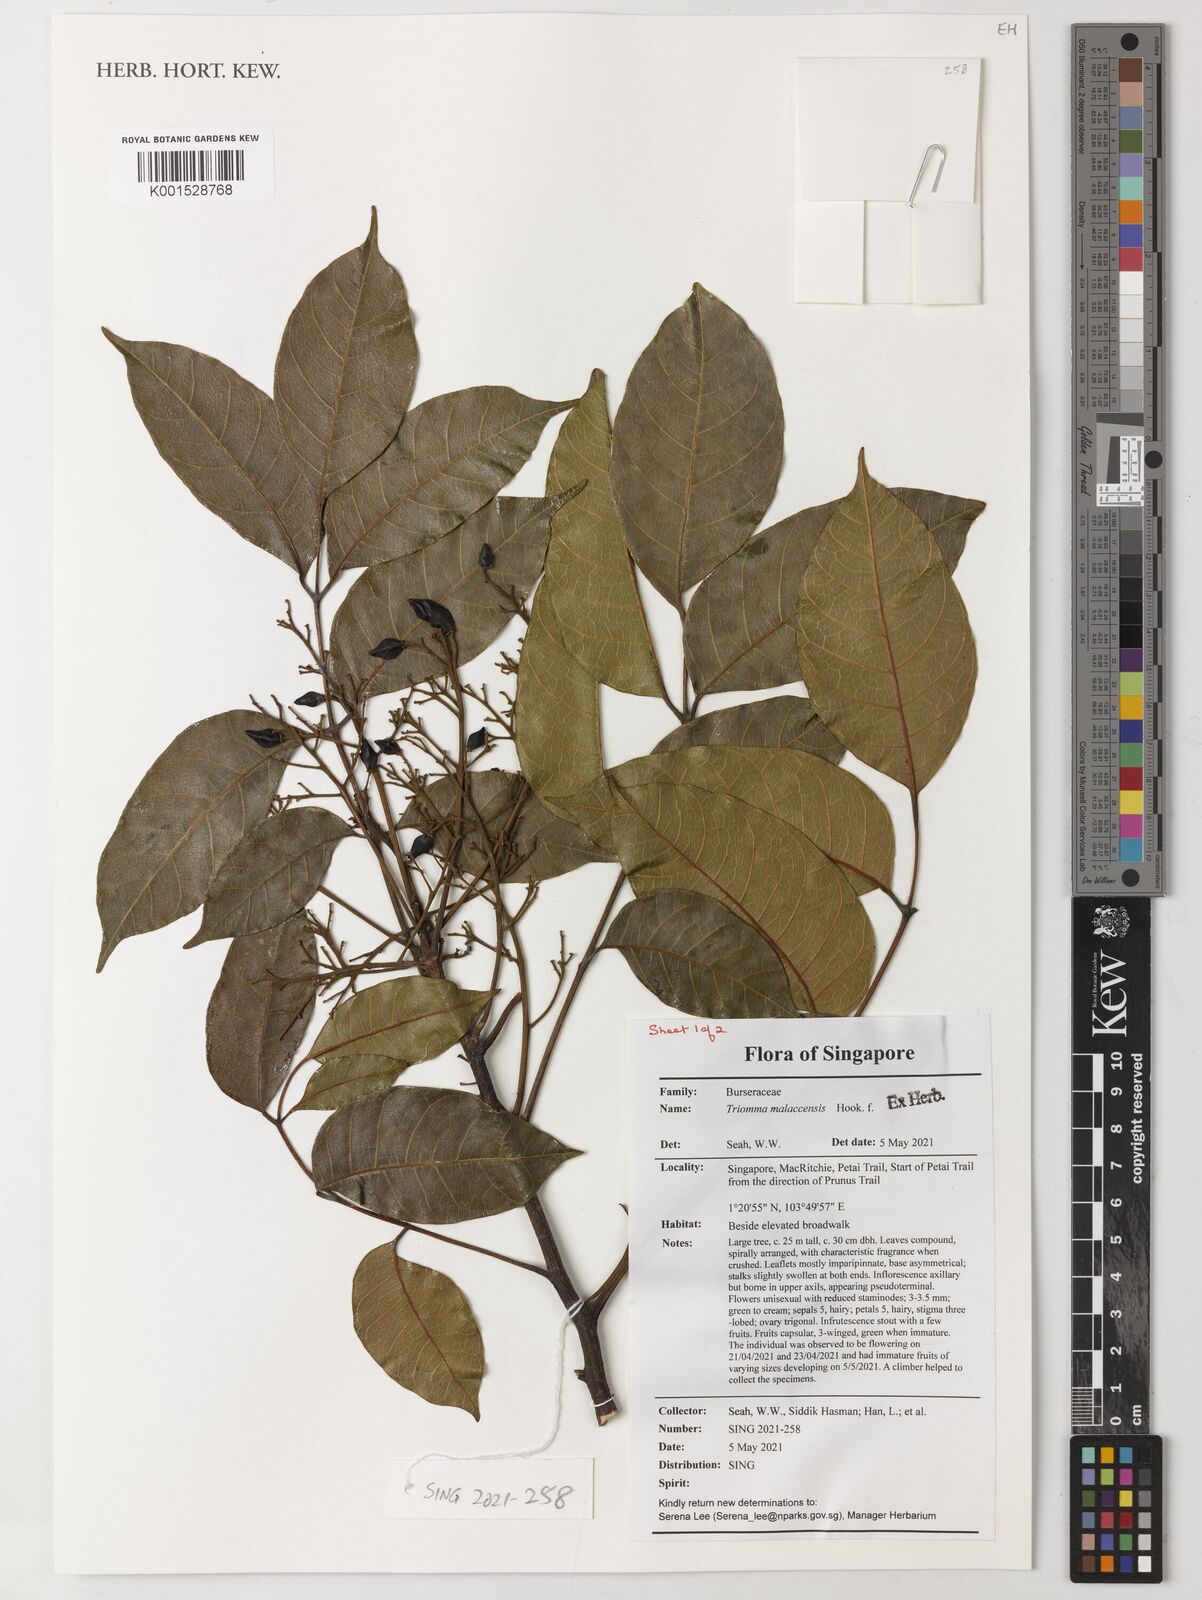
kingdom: Plantae
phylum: Tracheophyta
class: Magnoliopsida
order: Sapindales
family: Burseraceae
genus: Triomma
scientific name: Triomma malaccensis
